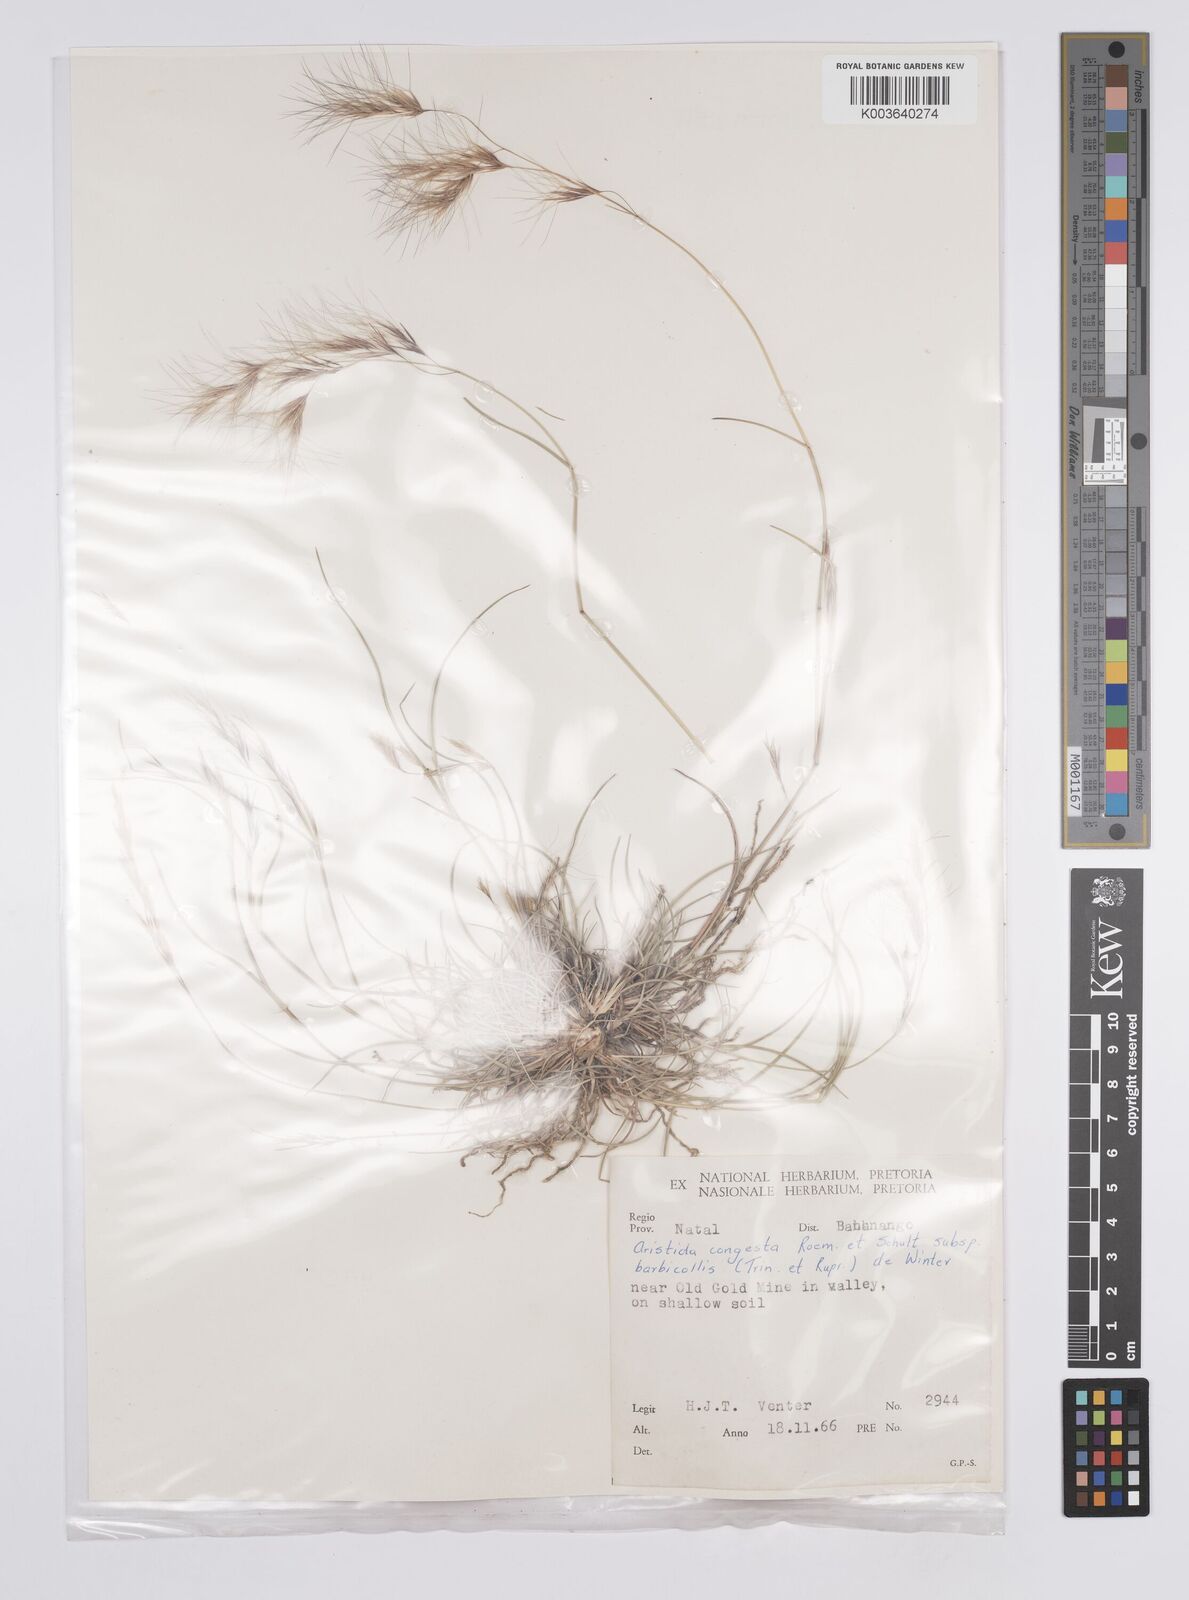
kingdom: Plantae
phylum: Tracheophyta
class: Liliopsida
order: Poales
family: Poaceae
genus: Aristida
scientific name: Aristida congesta
